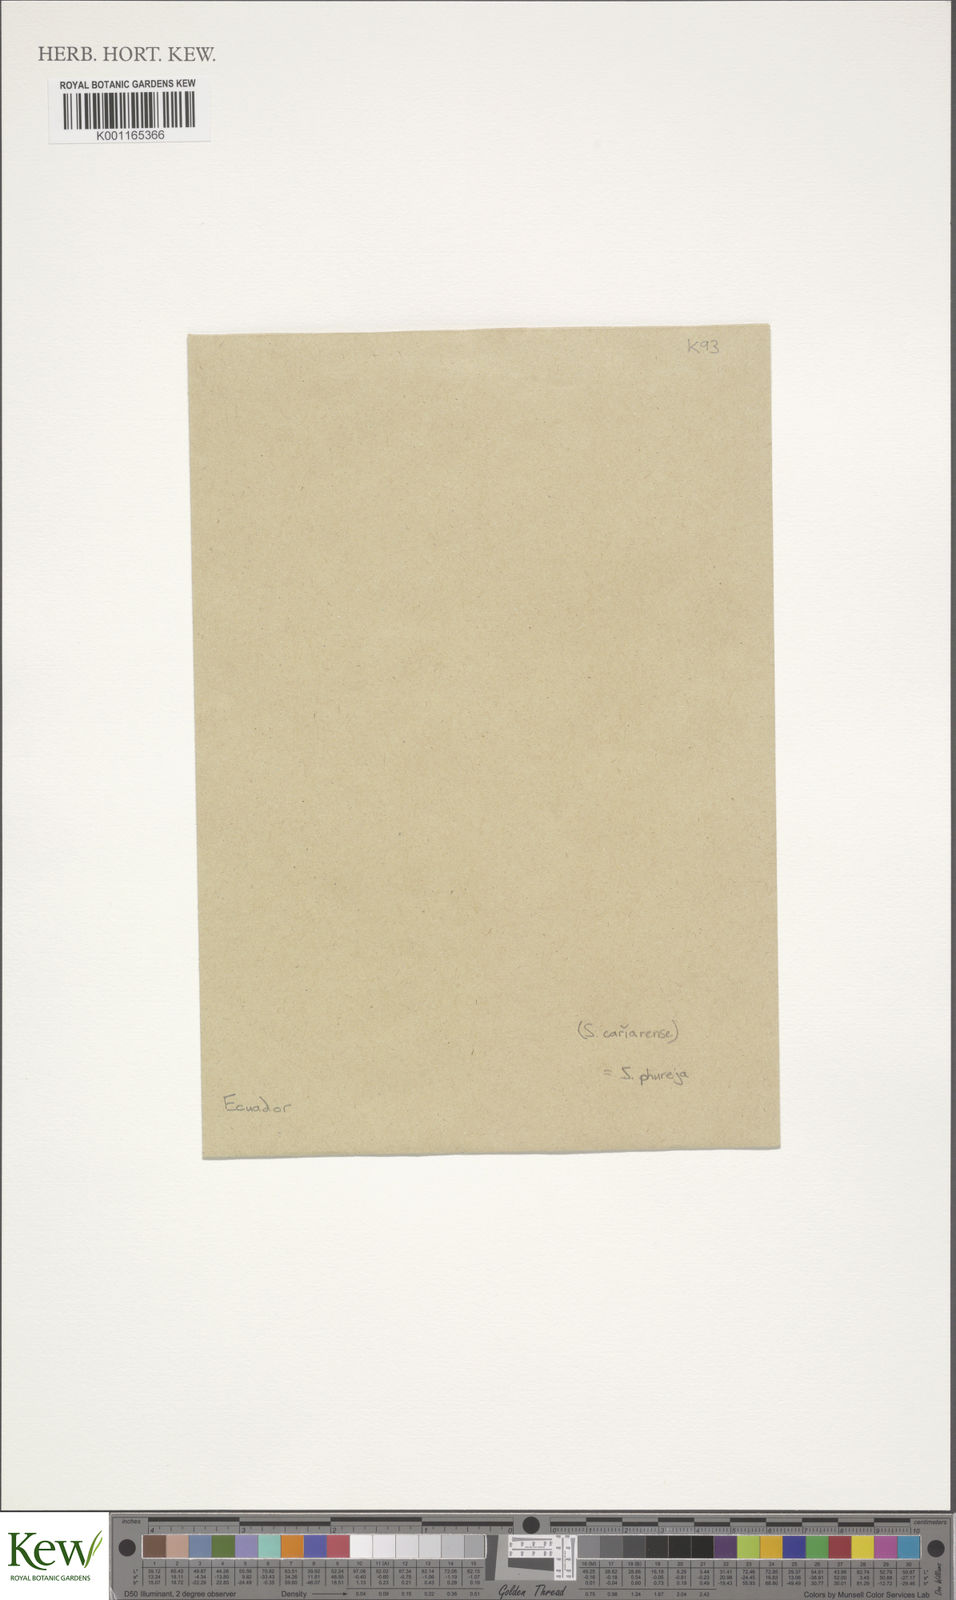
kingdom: Plantae
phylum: Tracheophyta
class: Magnoliopsida
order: Solanales
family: Solanaceae
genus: Solanum
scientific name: Solanum tuberosum
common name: Potato
